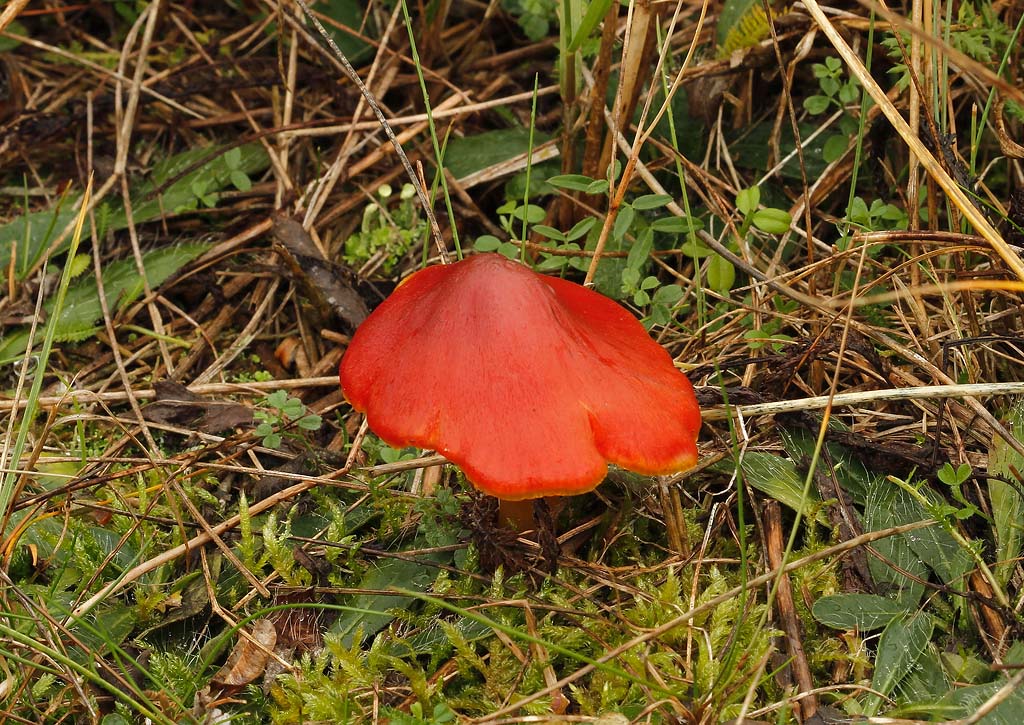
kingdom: Fungi
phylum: Basidiomycota
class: Agaricomycetes
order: Agaricales
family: Hygrophoraceae
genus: Hygrocybe
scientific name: Hygrocybe conicoides
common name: klit-vokshat
